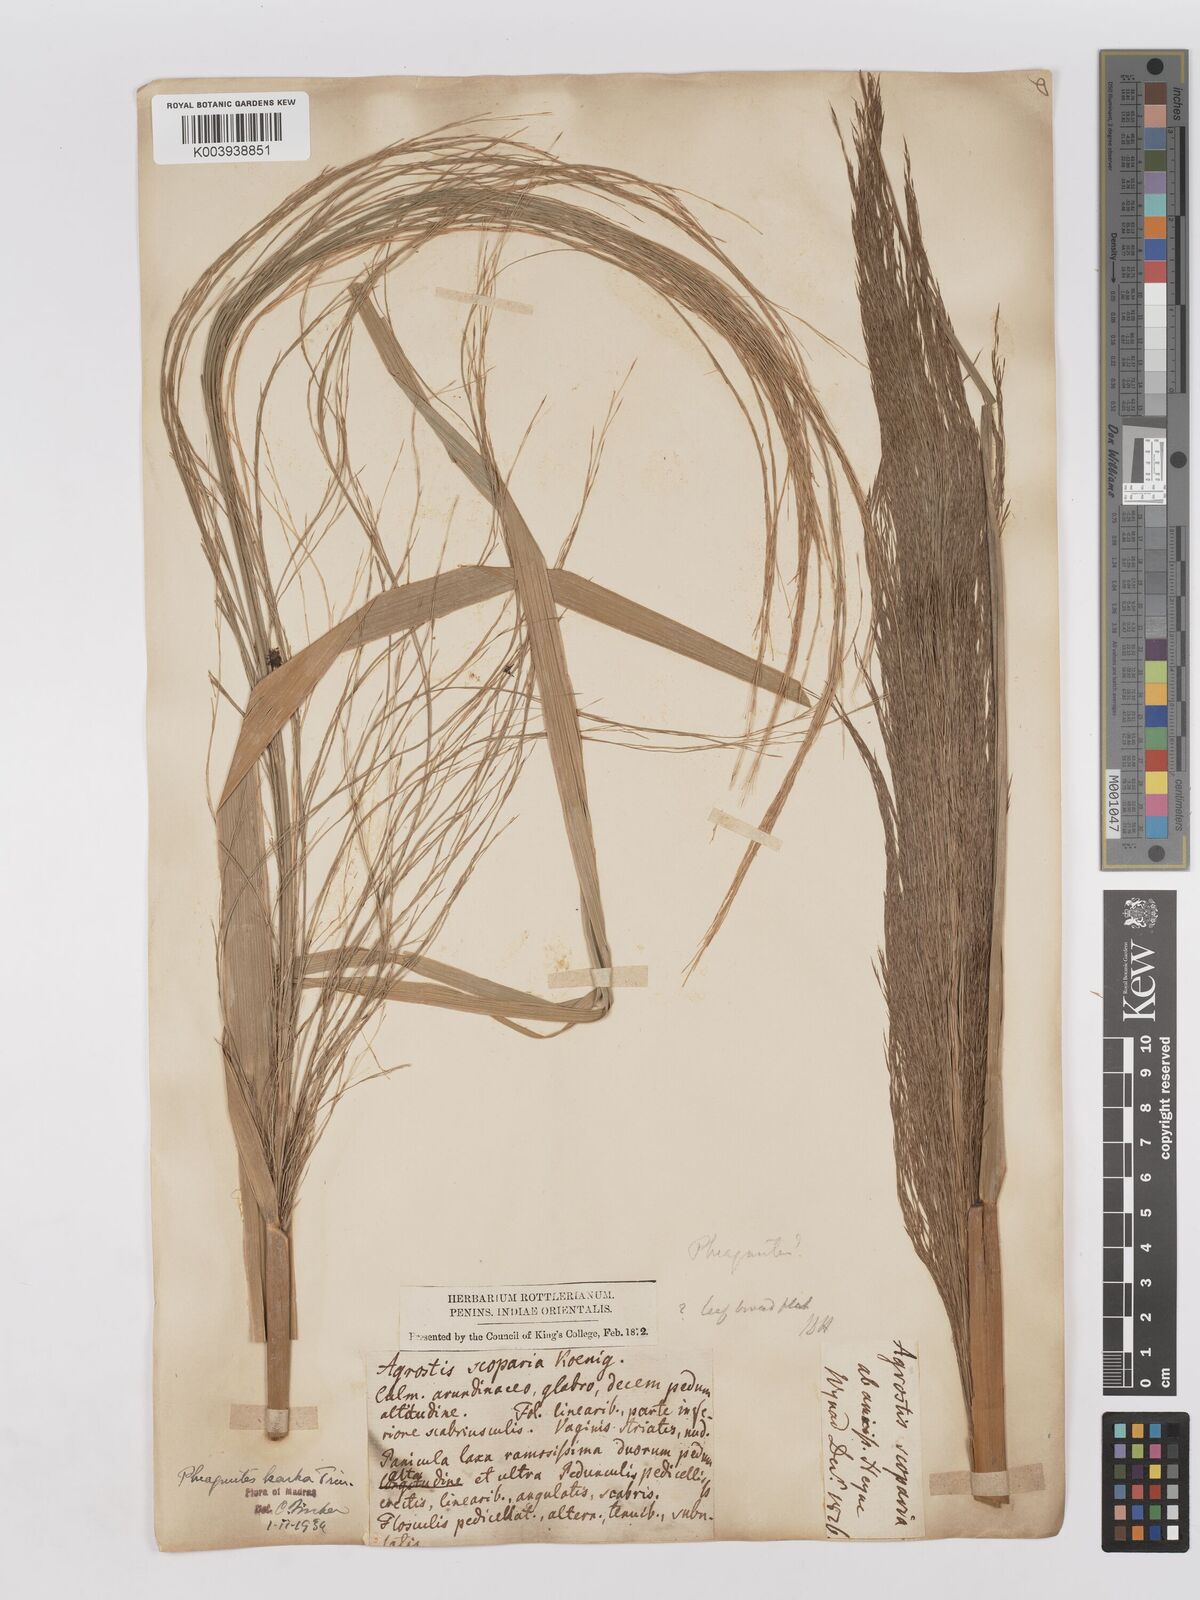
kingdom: Plantae
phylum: Tracheophyta
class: Liliopsida
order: Poales
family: Poaceae
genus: Phragmites
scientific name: Phragmites karka
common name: Tropical reed
